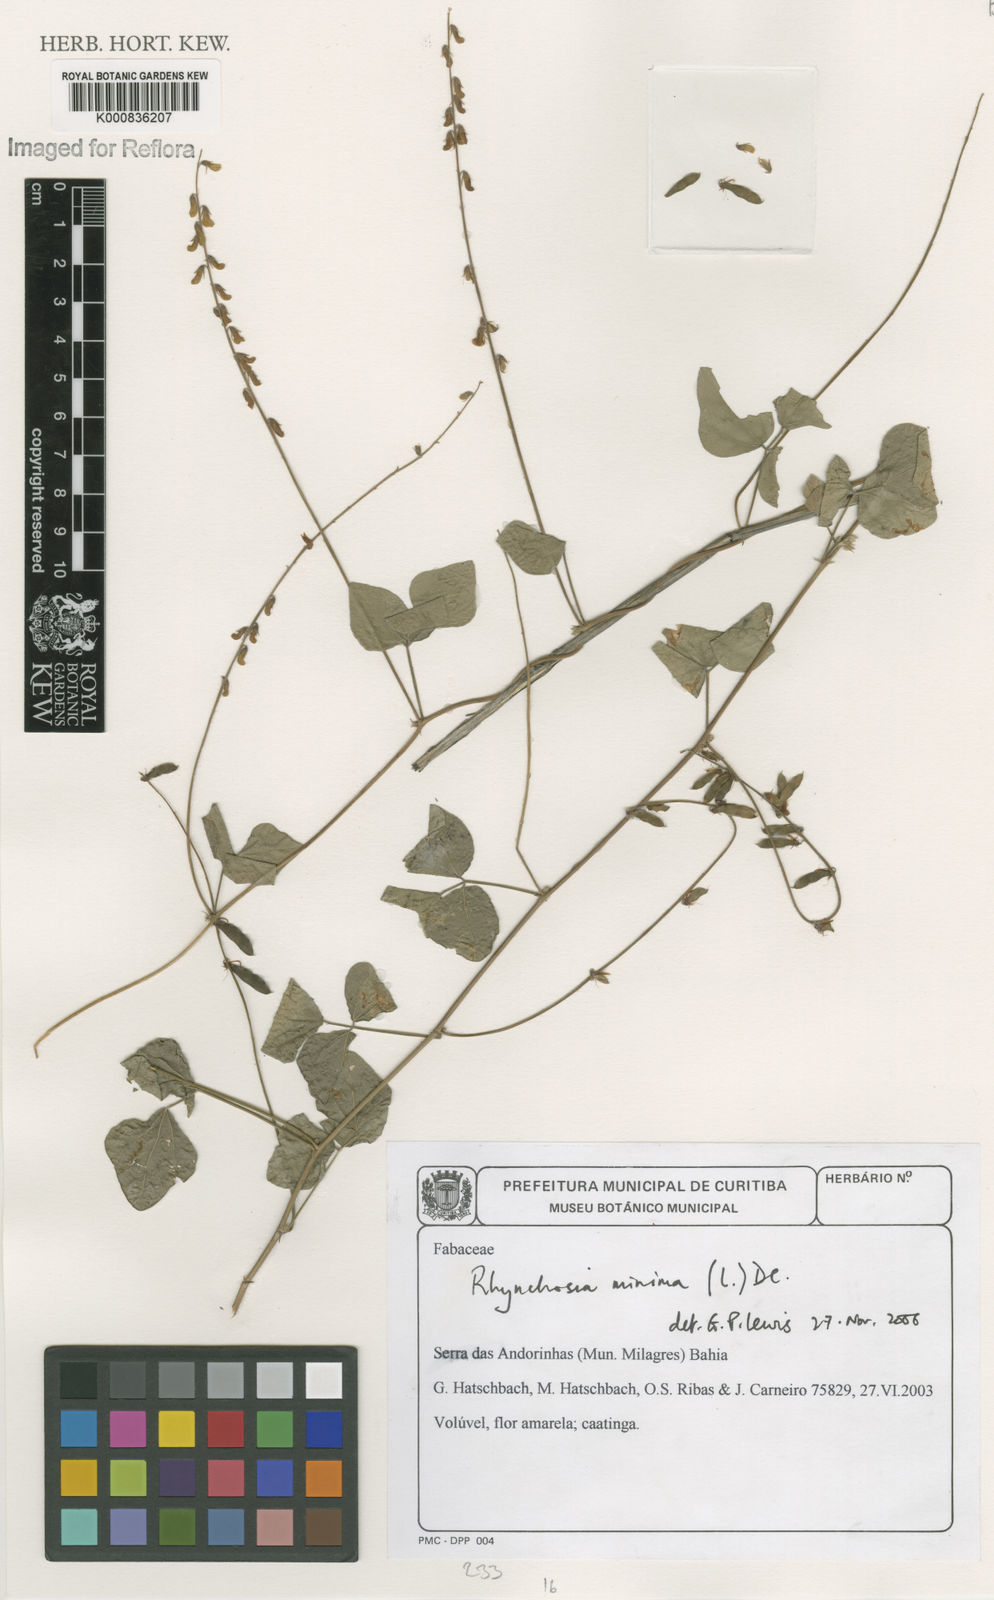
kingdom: Plantae
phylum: Tracheophyta
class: Magnoliopsida
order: Fabales
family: Fabaceae
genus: Rhynchosia
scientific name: Rhynchosia minima
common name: Least snoutbean
